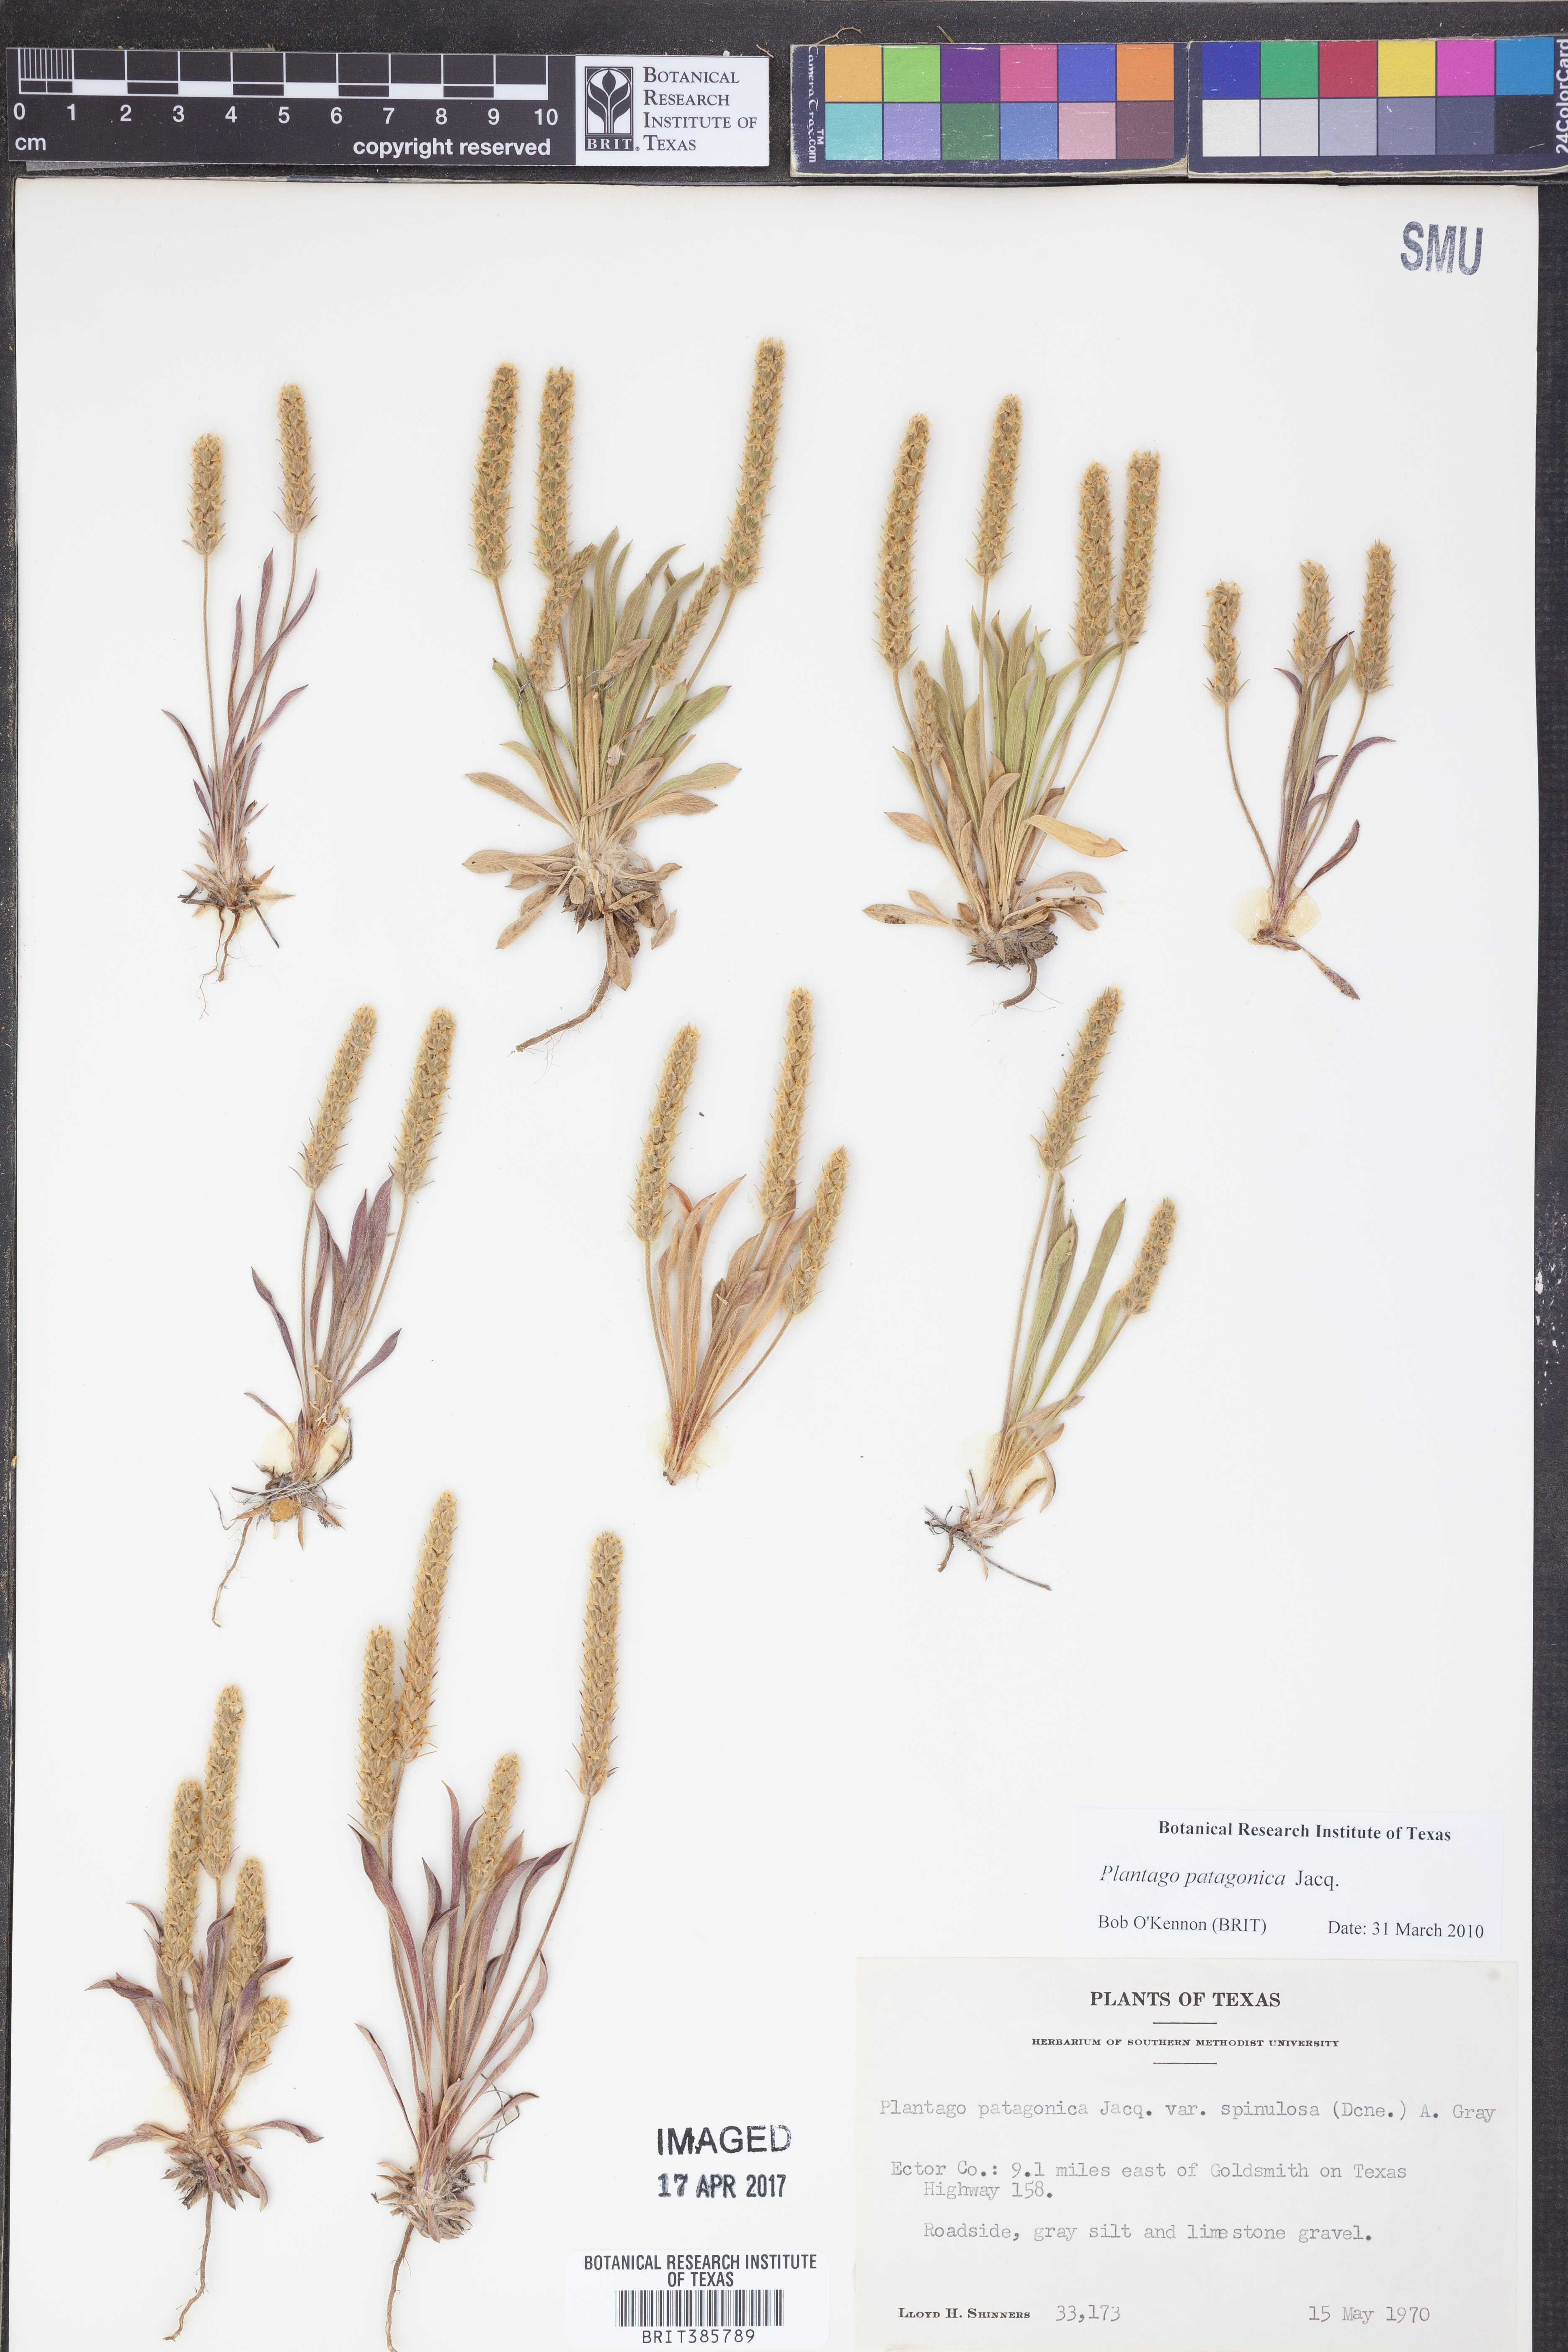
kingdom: Plantae
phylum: Tracheophyta
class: Magnoliopsida
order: Lamiales
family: Plantaginaceae
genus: Plantago
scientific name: Plantago patagonica
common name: Patagonia indian-wheat
